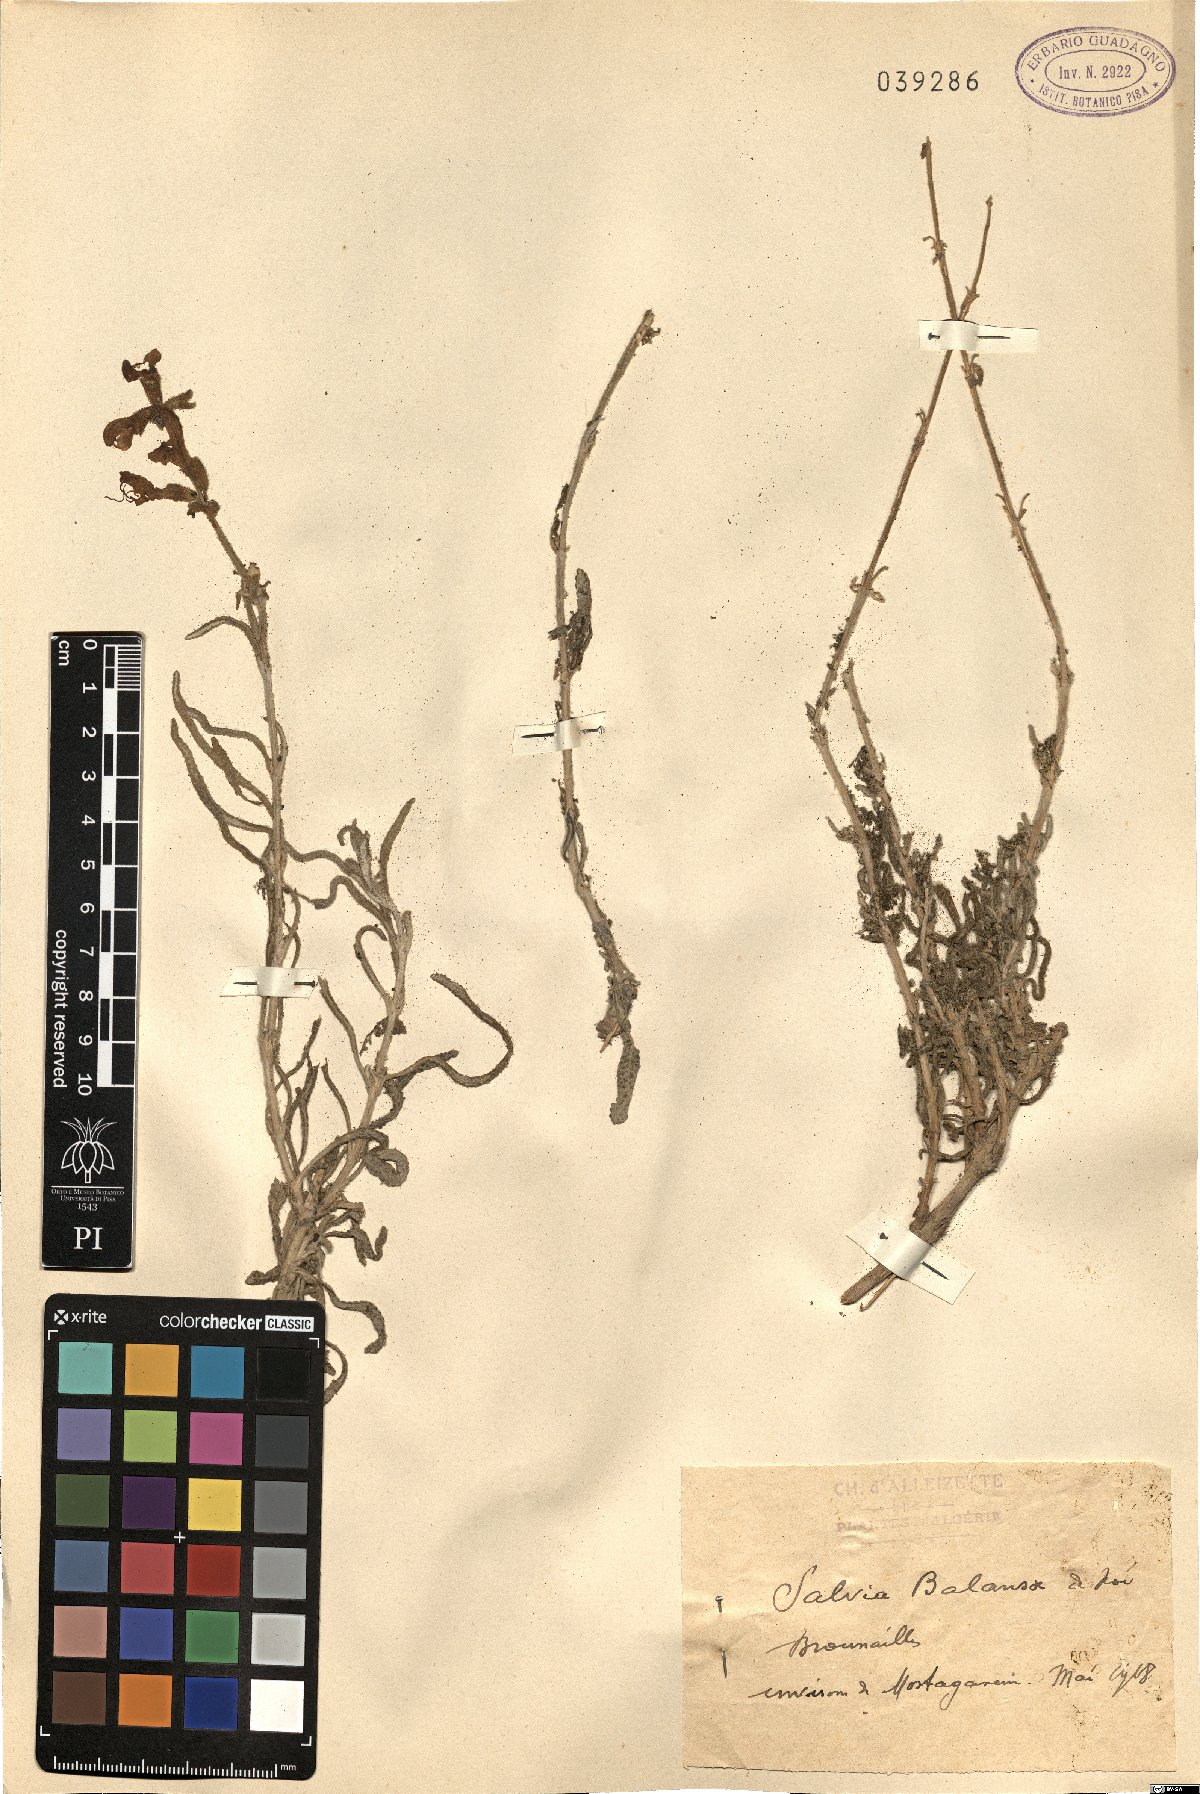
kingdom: Plantae
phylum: Tracheophyta
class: Magnoliopsida
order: Lamiales
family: Lamiaceae
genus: Salvia
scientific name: Salvia balansae
